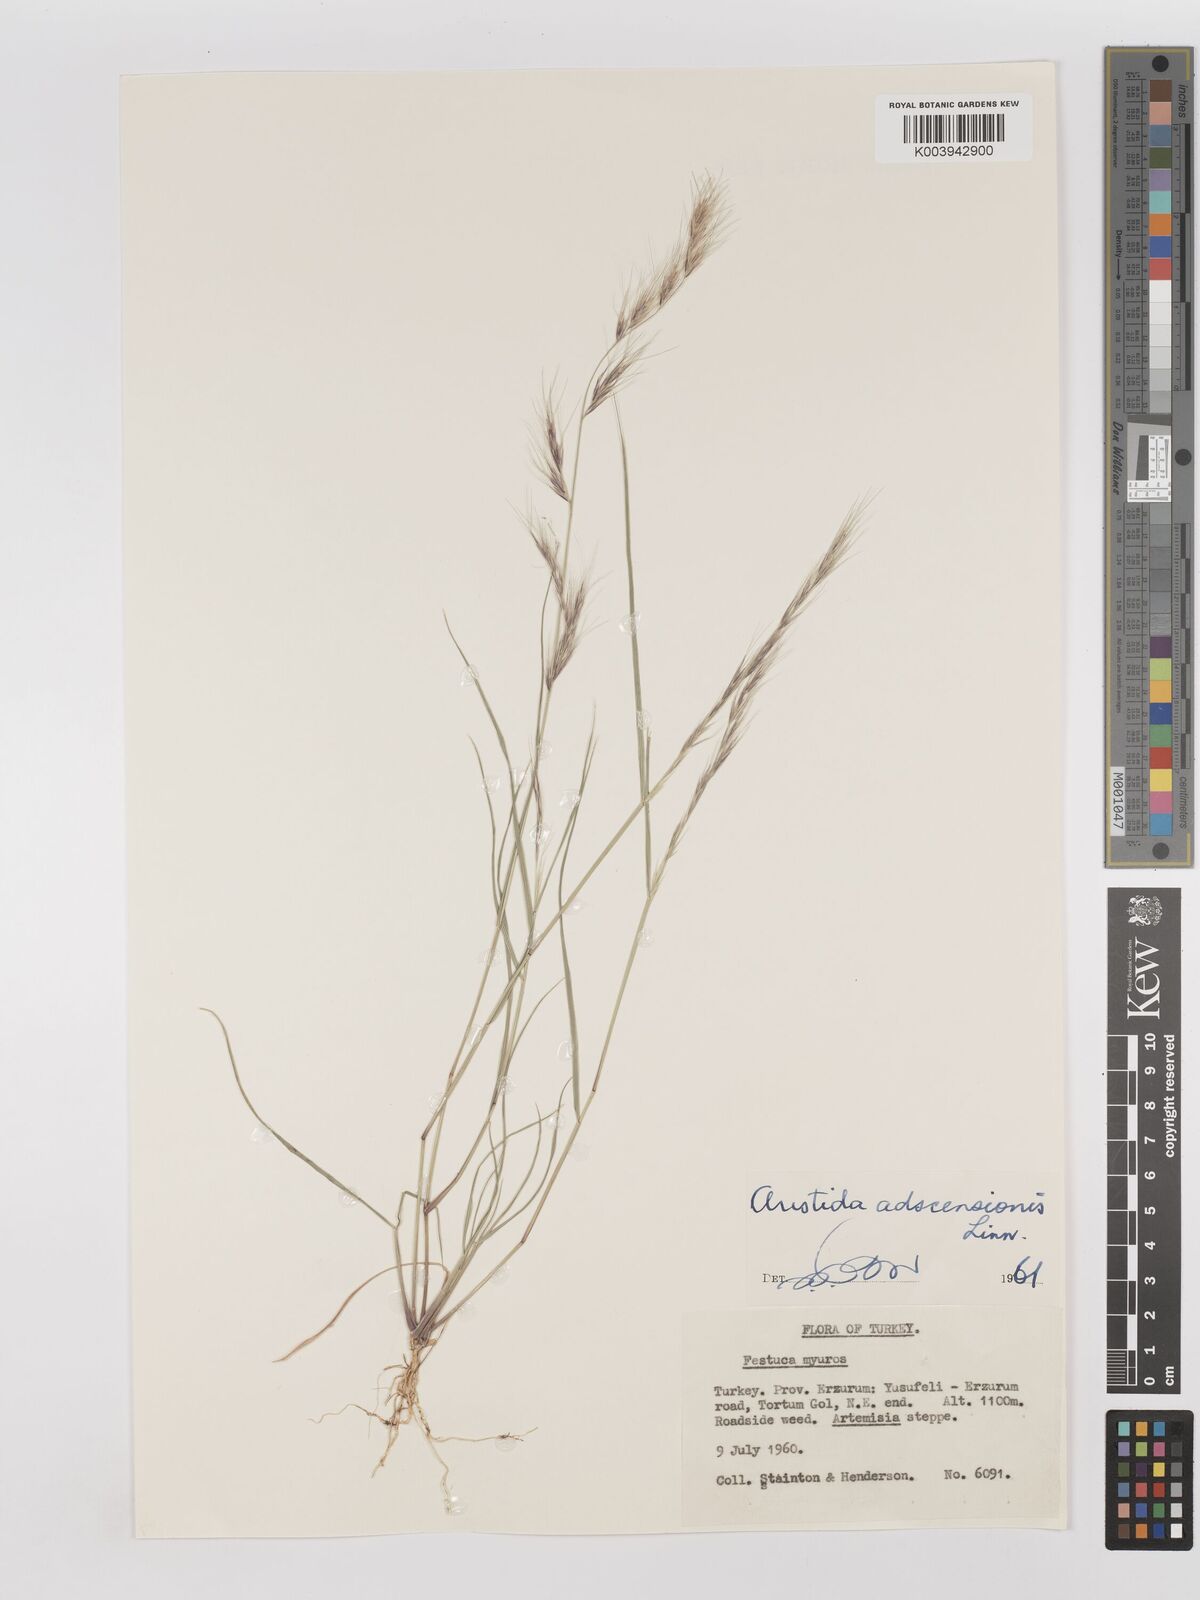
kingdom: Plantae
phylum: Tracheophyta
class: Liliopsida
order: Poales
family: Poaceae
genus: Aristida
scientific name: Aristida adscensionis
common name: Sixweeks threeawn
